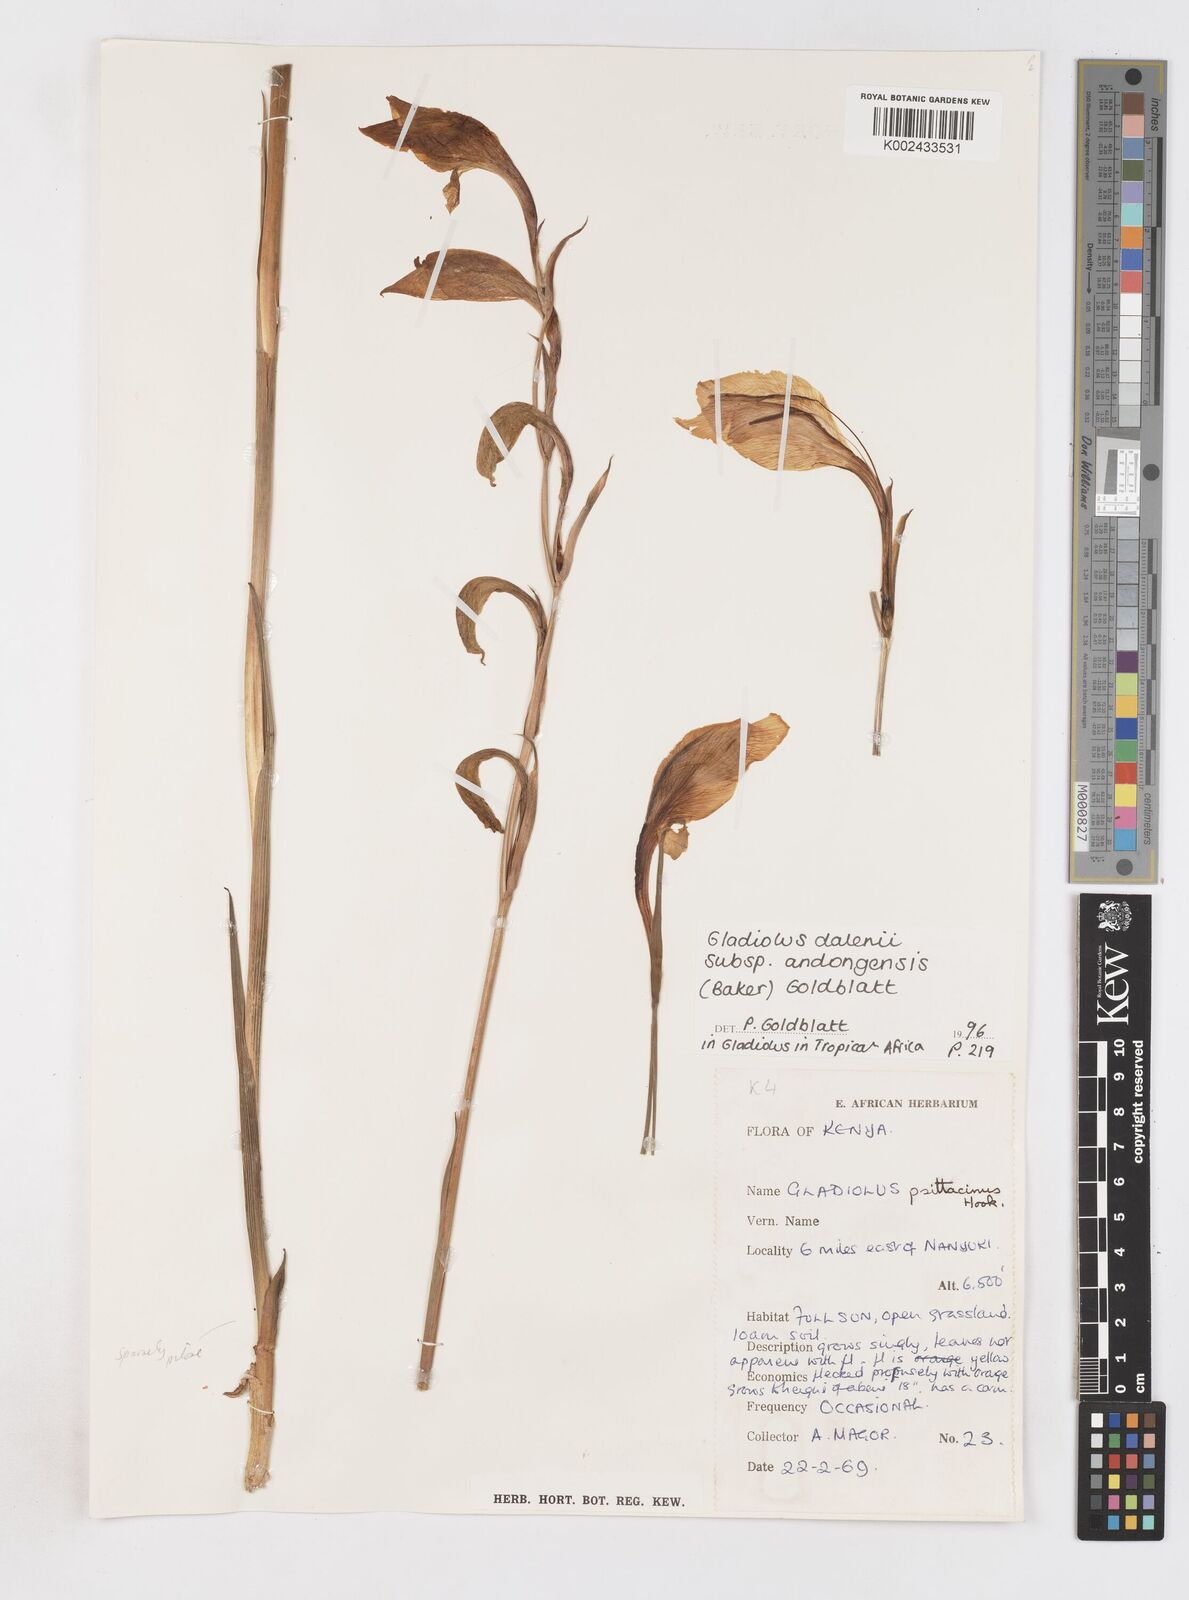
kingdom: Plantae
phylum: Tracheophyta
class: Liliopsida
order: Asparagales
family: Iridaceae
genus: Gladiolus
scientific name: Gladiolus dalenii
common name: Cornflag
